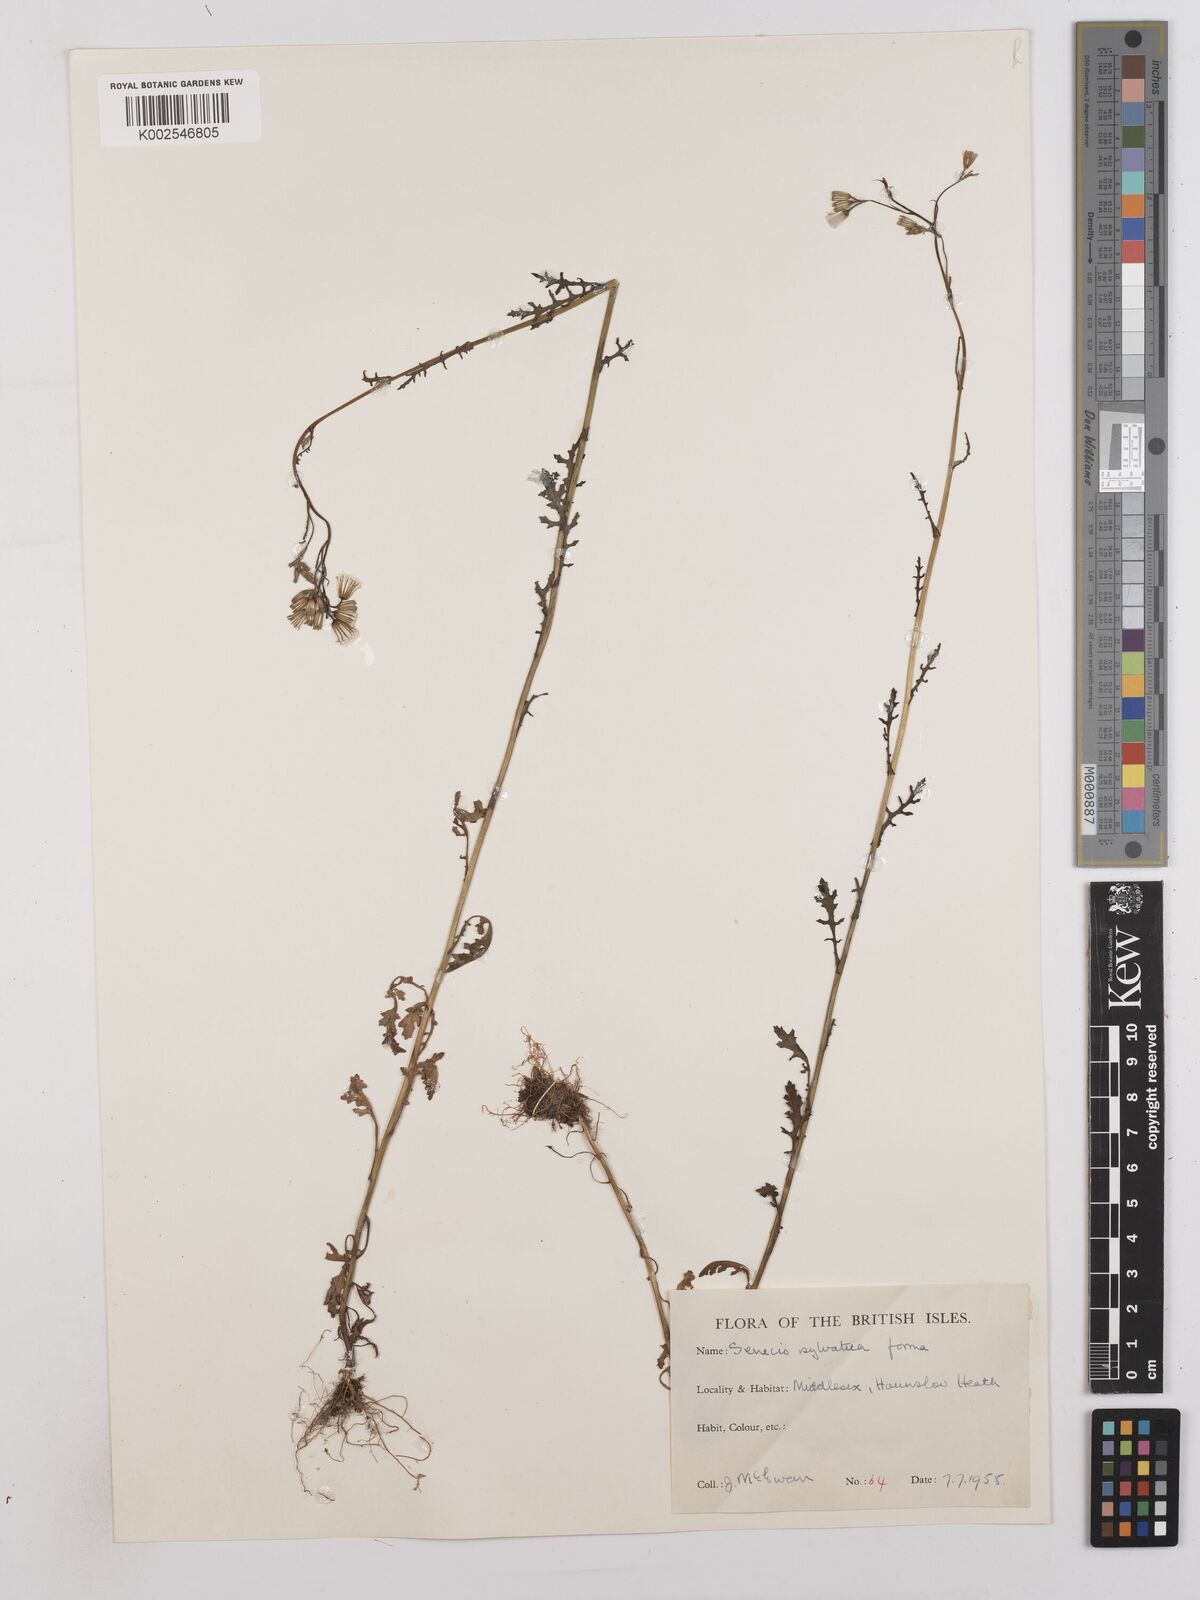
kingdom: Plantae
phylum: Tracheophyta
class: Magnoliopsida
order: Asterales
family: Asteraceae
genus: Senecio
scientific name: Senecio sylvaticus
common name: Woodland ragwort
